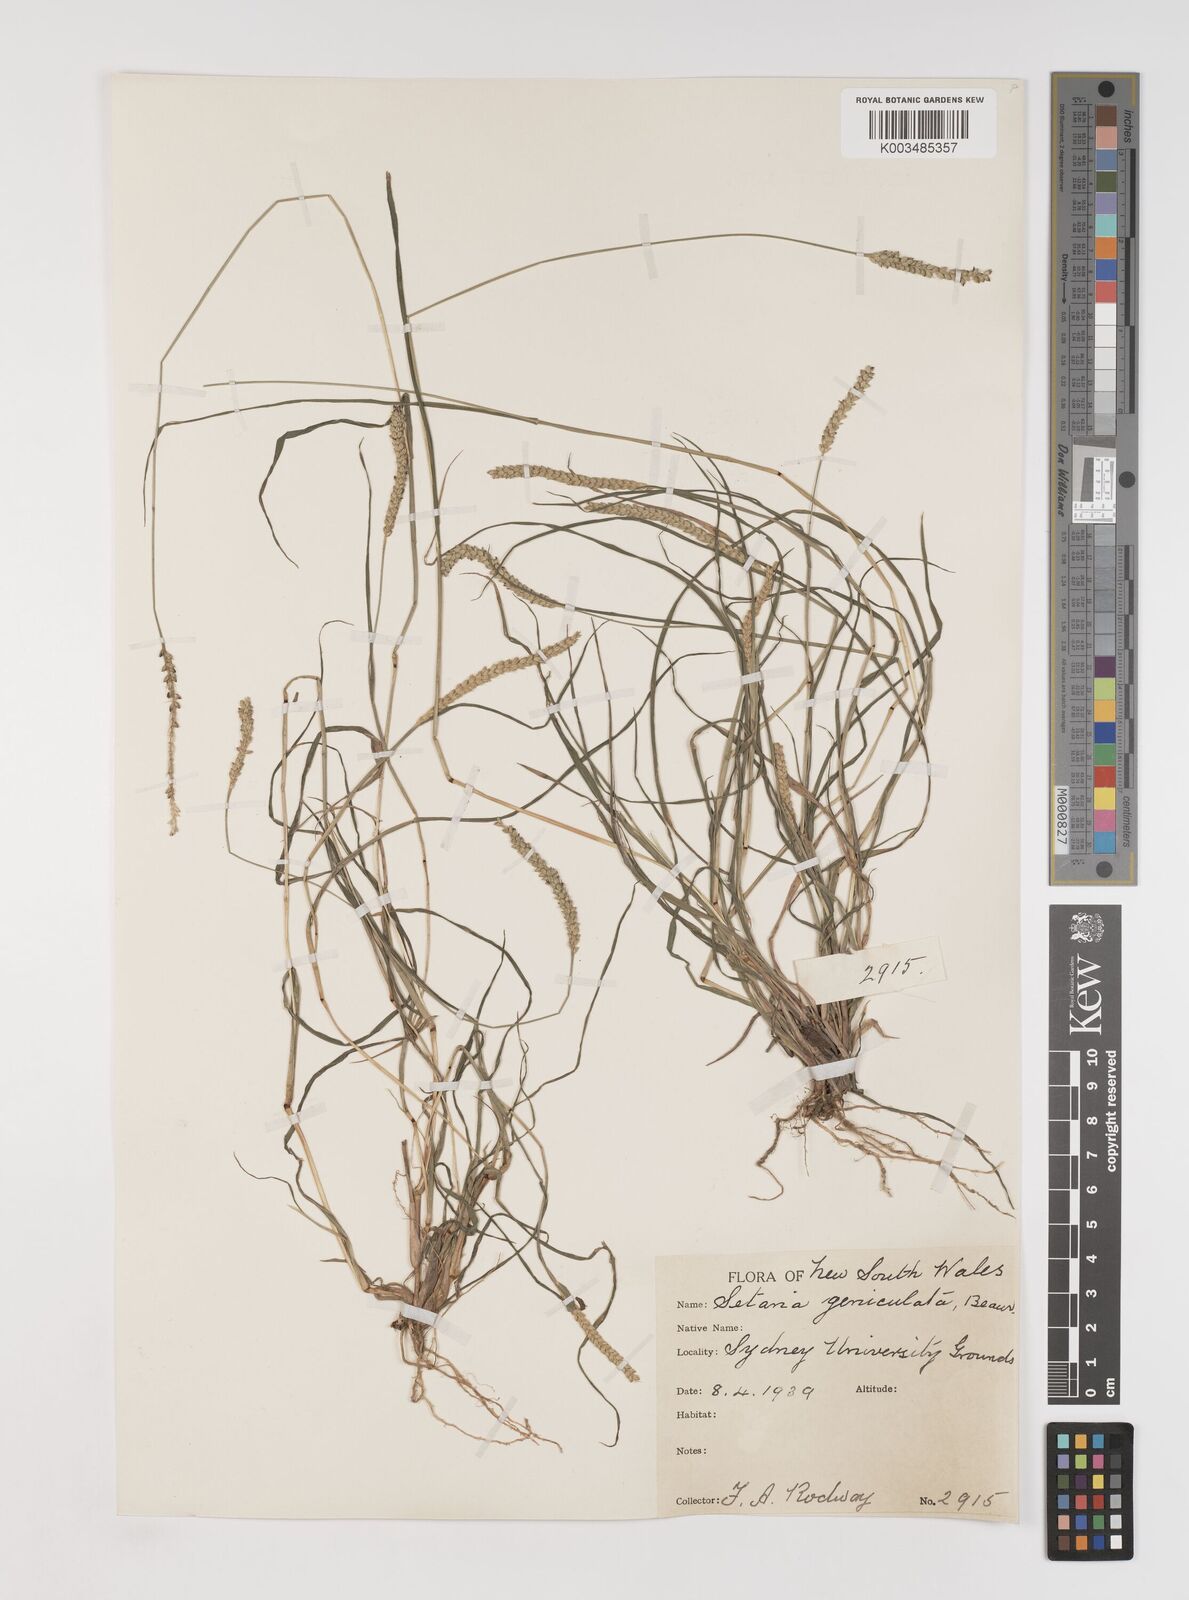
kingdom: Plantae
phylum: Tracheophyta
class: Liliopsida
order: Poales
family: Poaceae
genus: Setaria
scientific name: Setaria parviflora
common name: Knotroot bristle-grass
